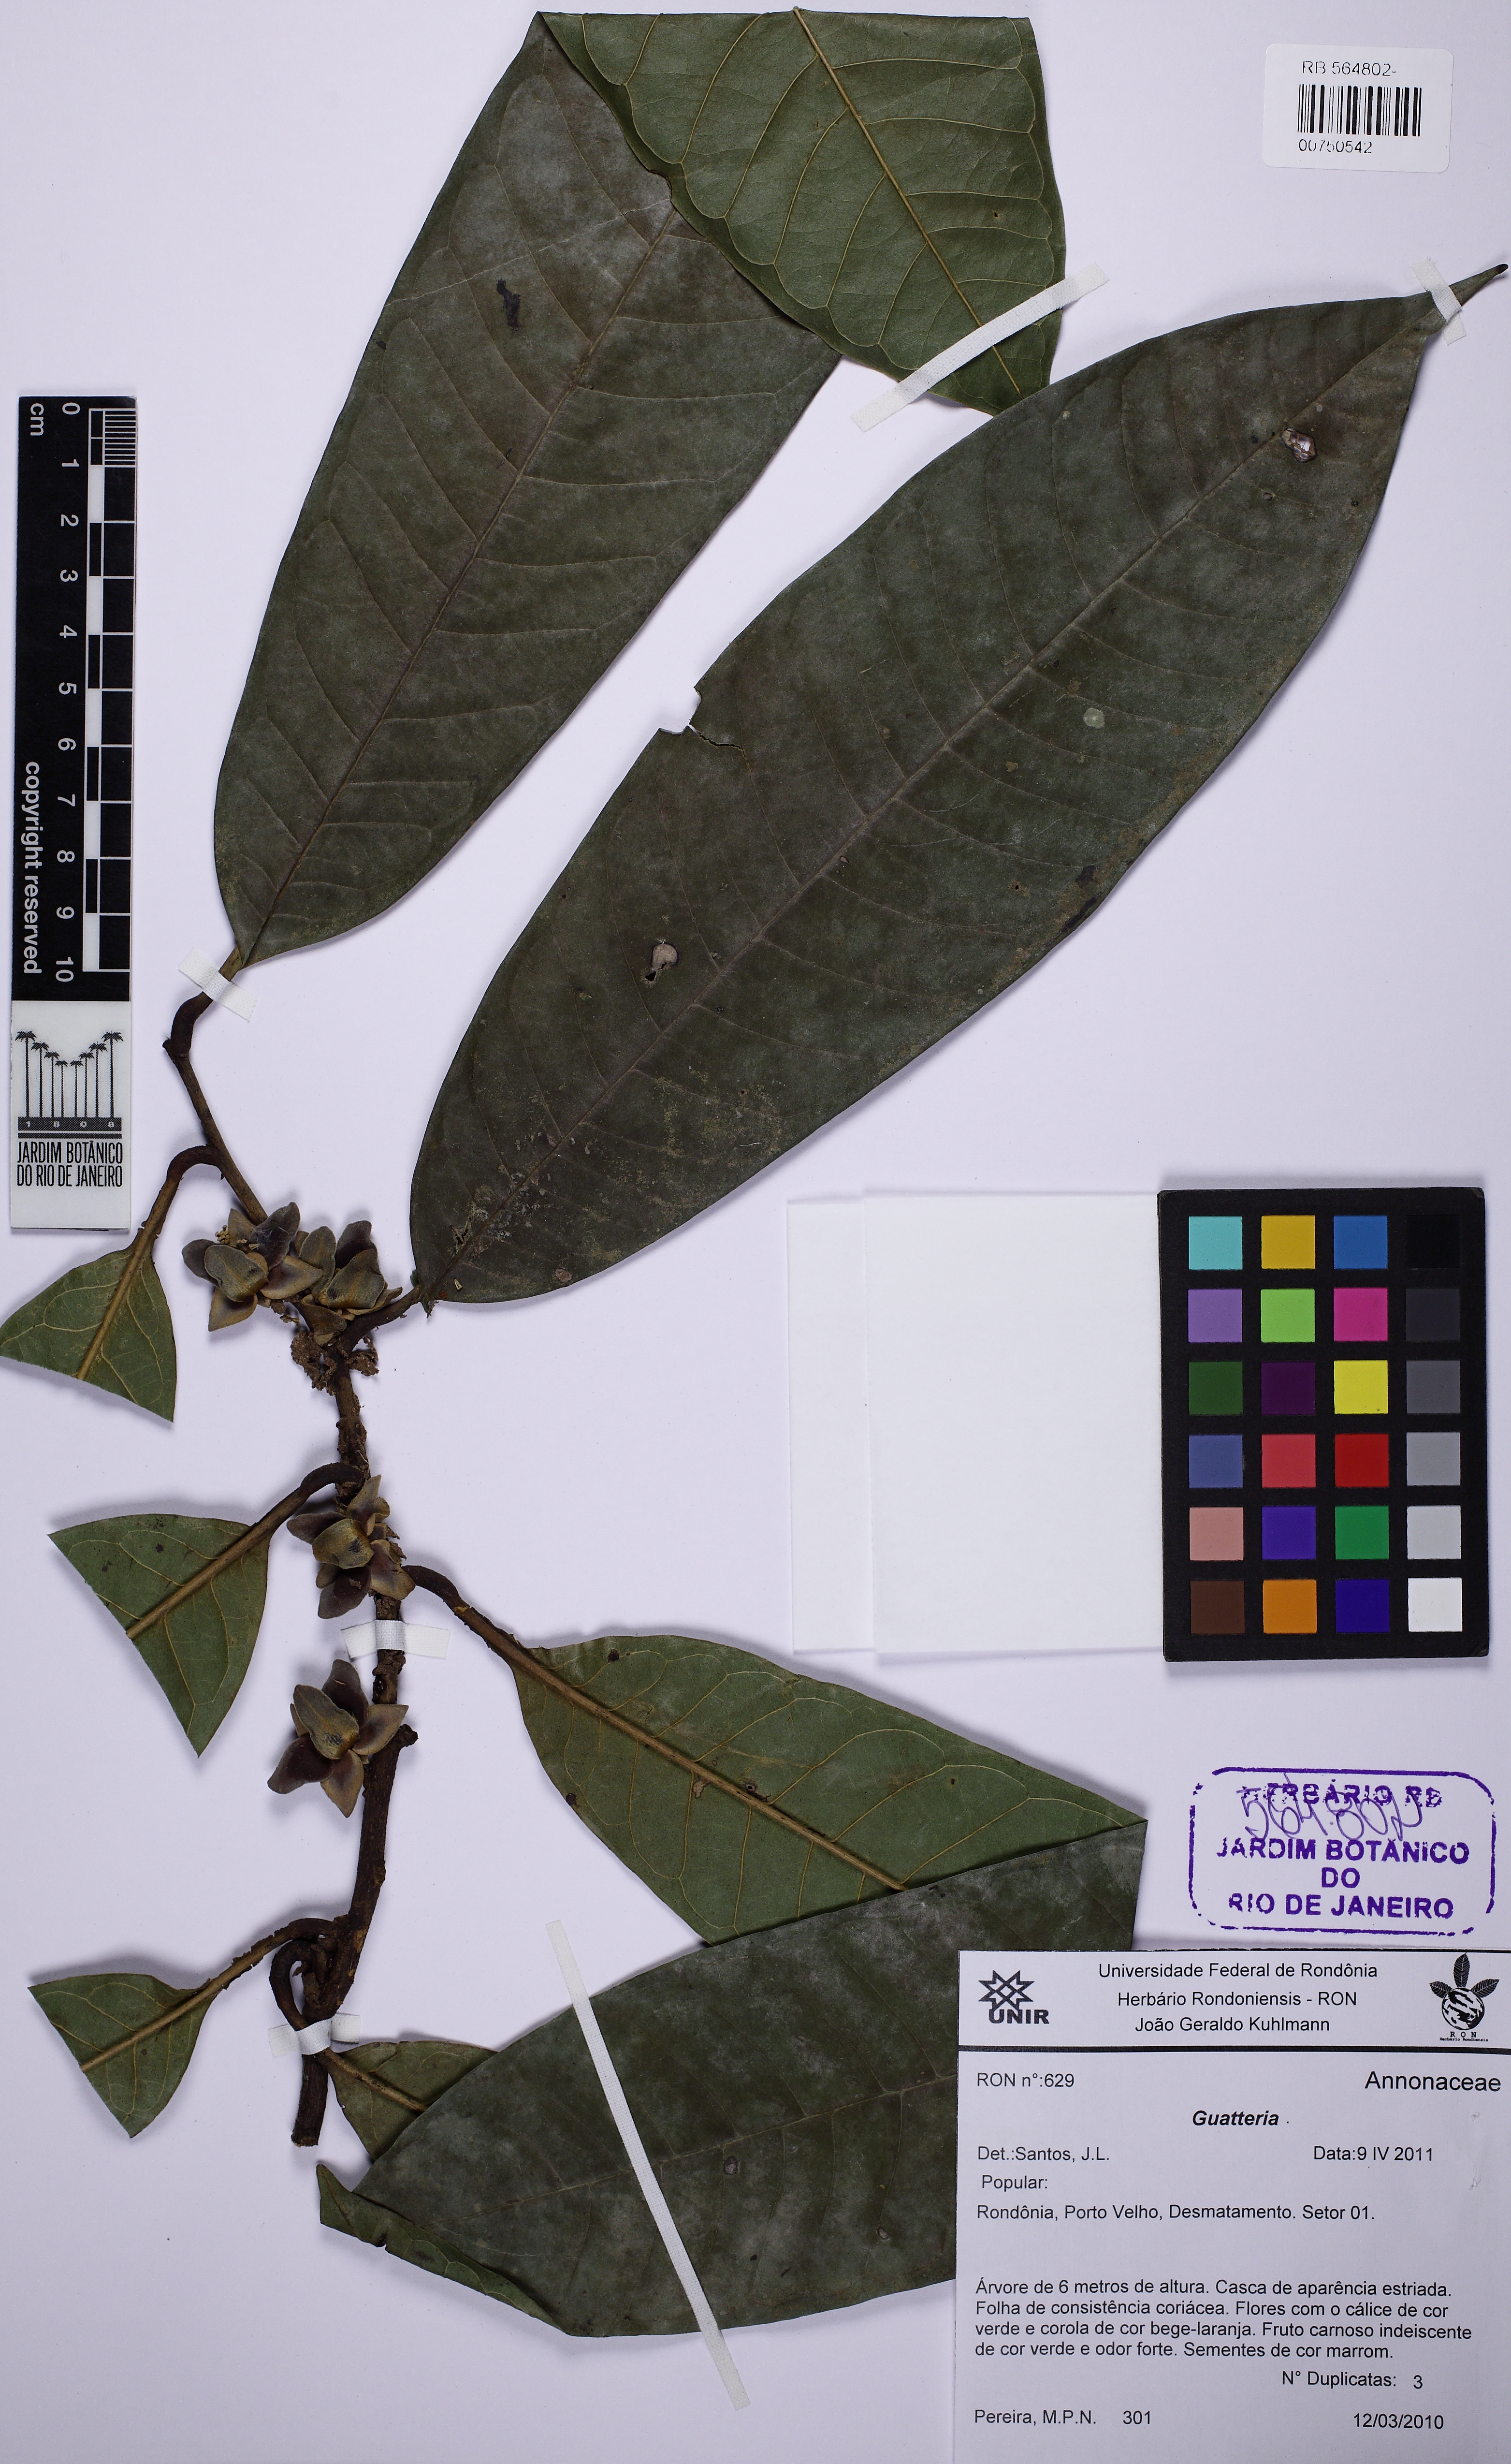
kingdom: Plantae
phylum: Tracheophyta
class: Magnoliopsida
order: Magnoliales
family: Annonaceae
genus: Guatteria
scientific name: Guatteria megalophylla
